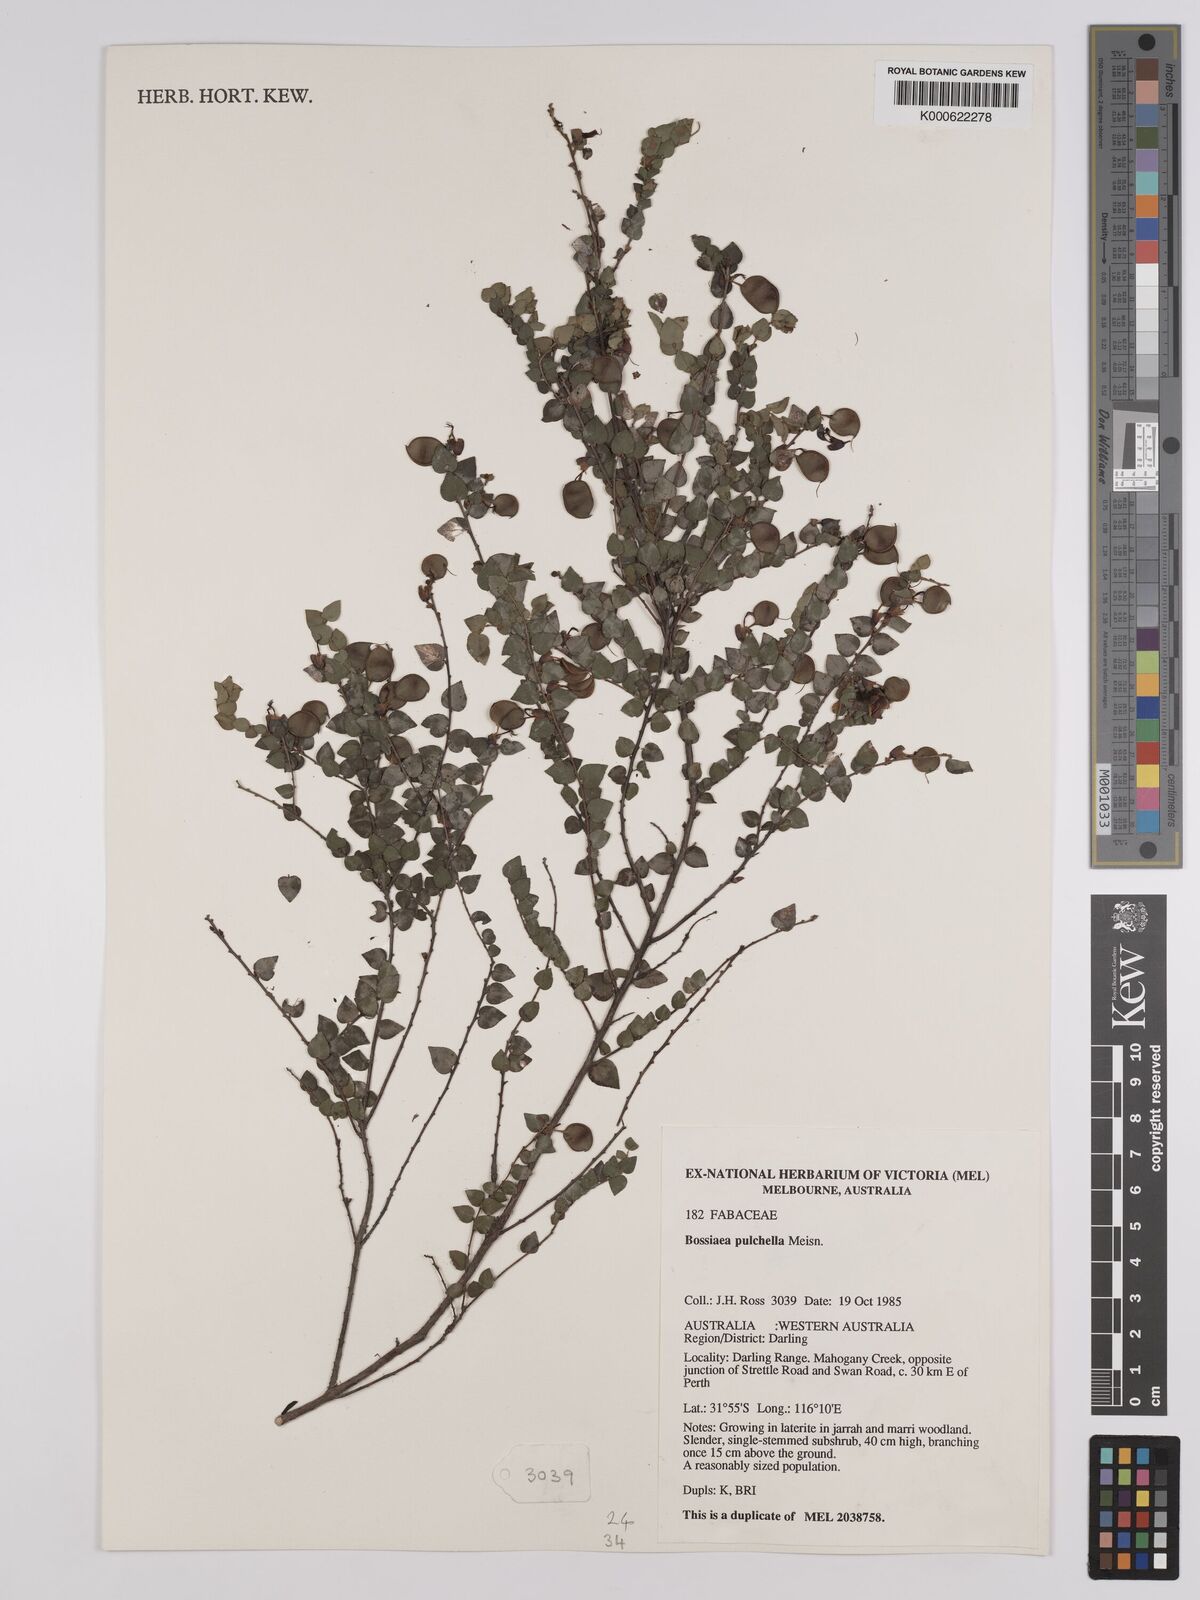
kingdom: Plantae
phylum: Tracheophyta
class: Magnoliopsida
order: Fabales
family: Fabaceae
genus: Bossiaea
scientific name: Bossiaea pulchella
